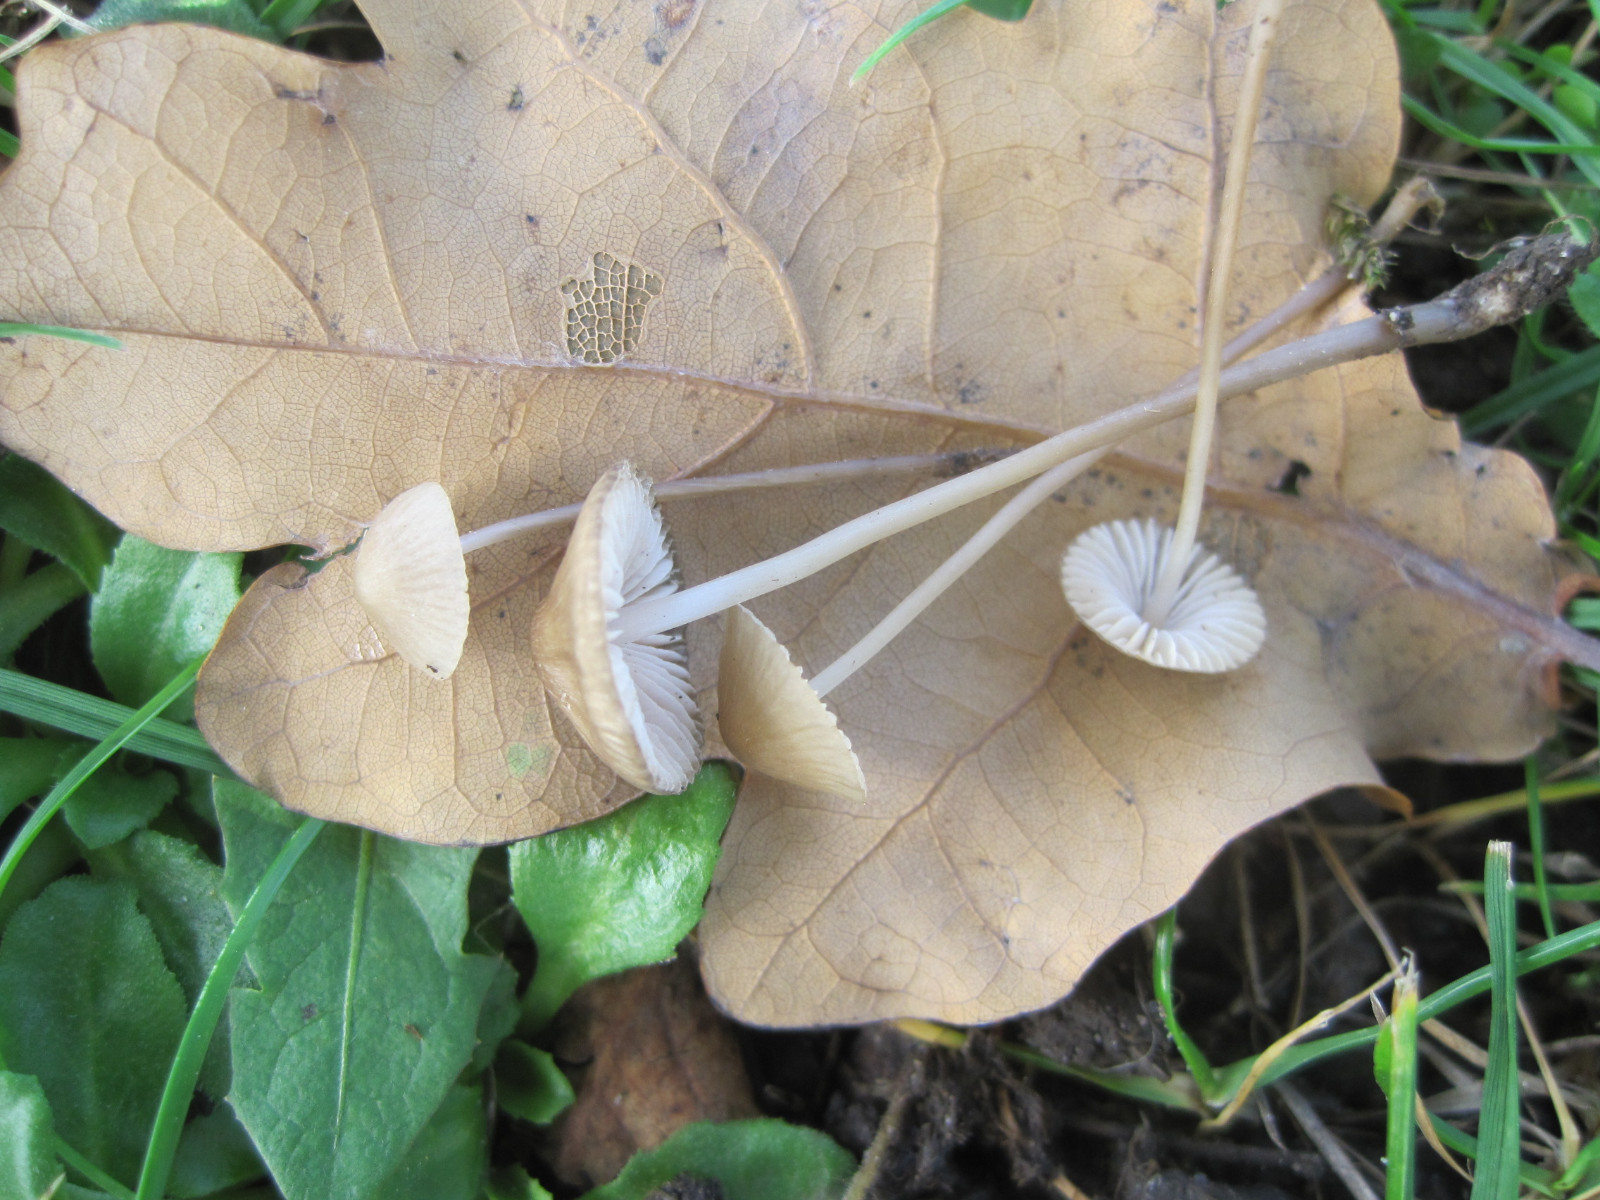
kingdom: Fungi
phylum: Basidiomycota
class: Agaricomycetes
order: Agaricales
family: Mycenaceae
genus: Mycena
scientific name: Mycena vitilis
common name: blankstokket huesvamp
